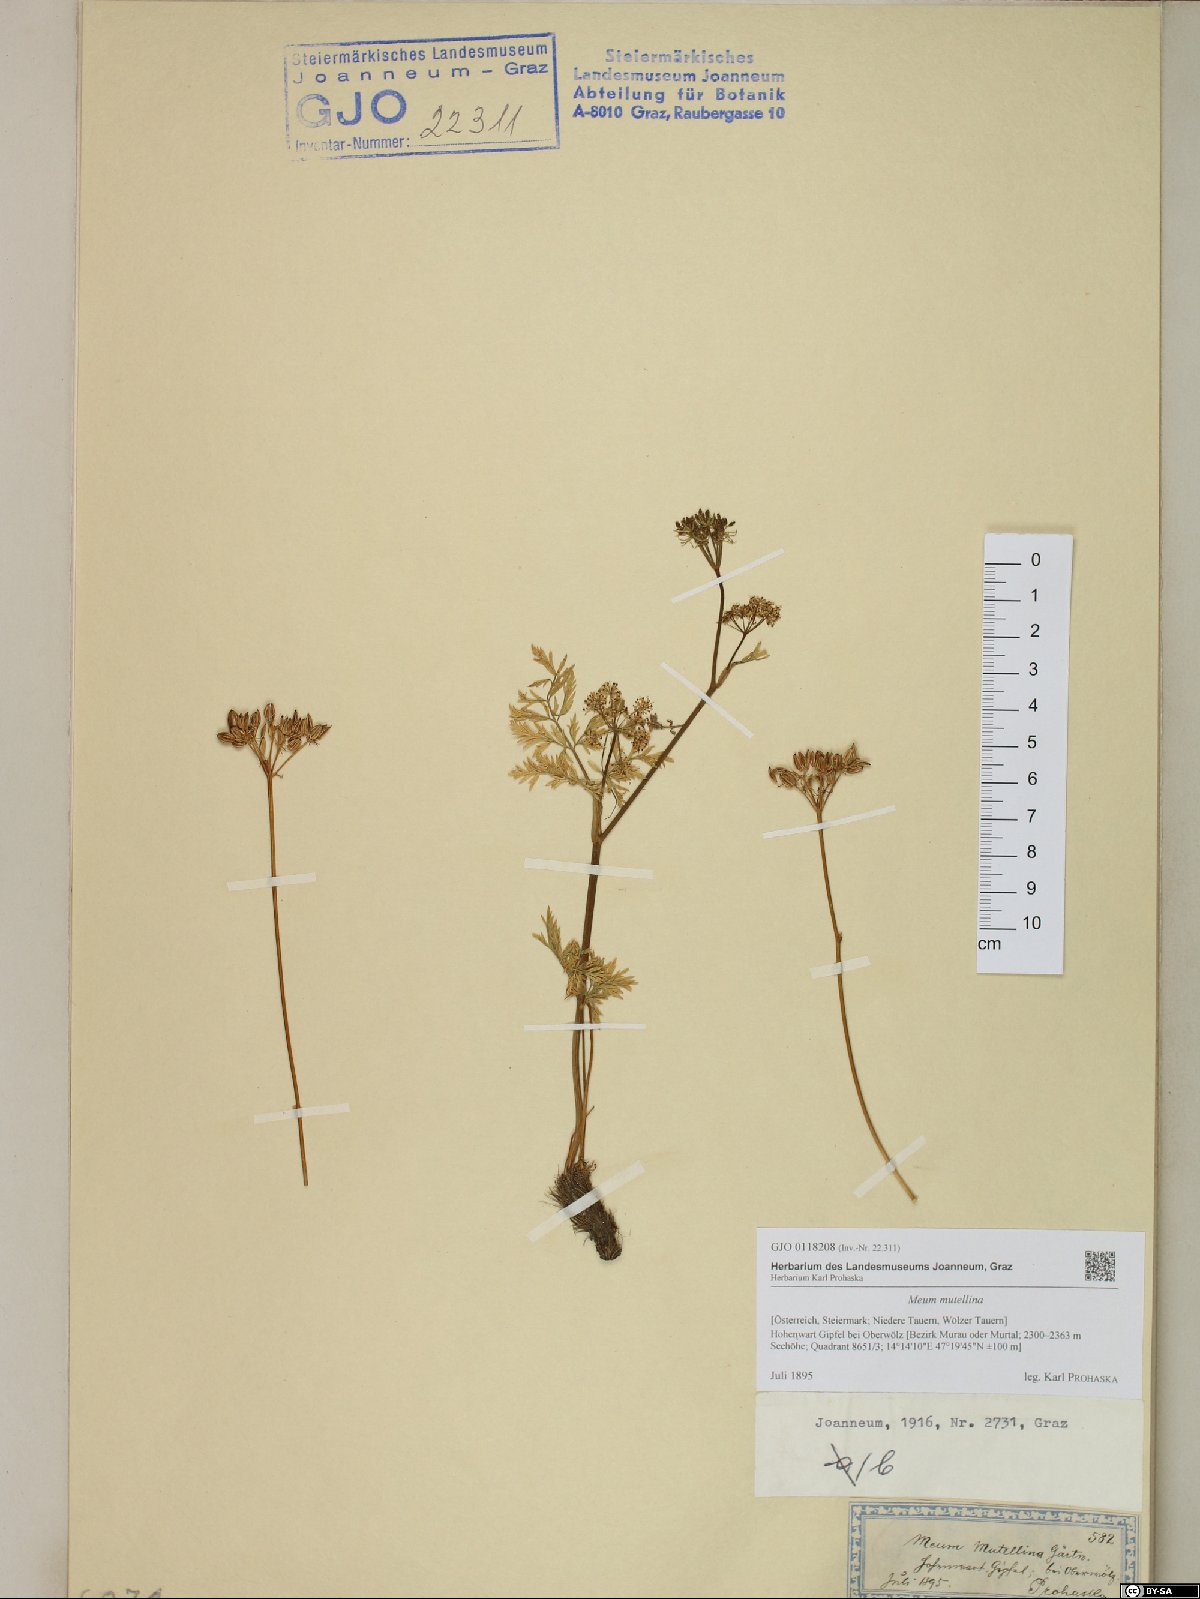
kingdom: Plantae
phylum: Tracheophyta
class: Magnoliopsida
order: Apiales
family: Apiaceae
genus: Mutellina
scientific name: Mutellina adonidifolia
